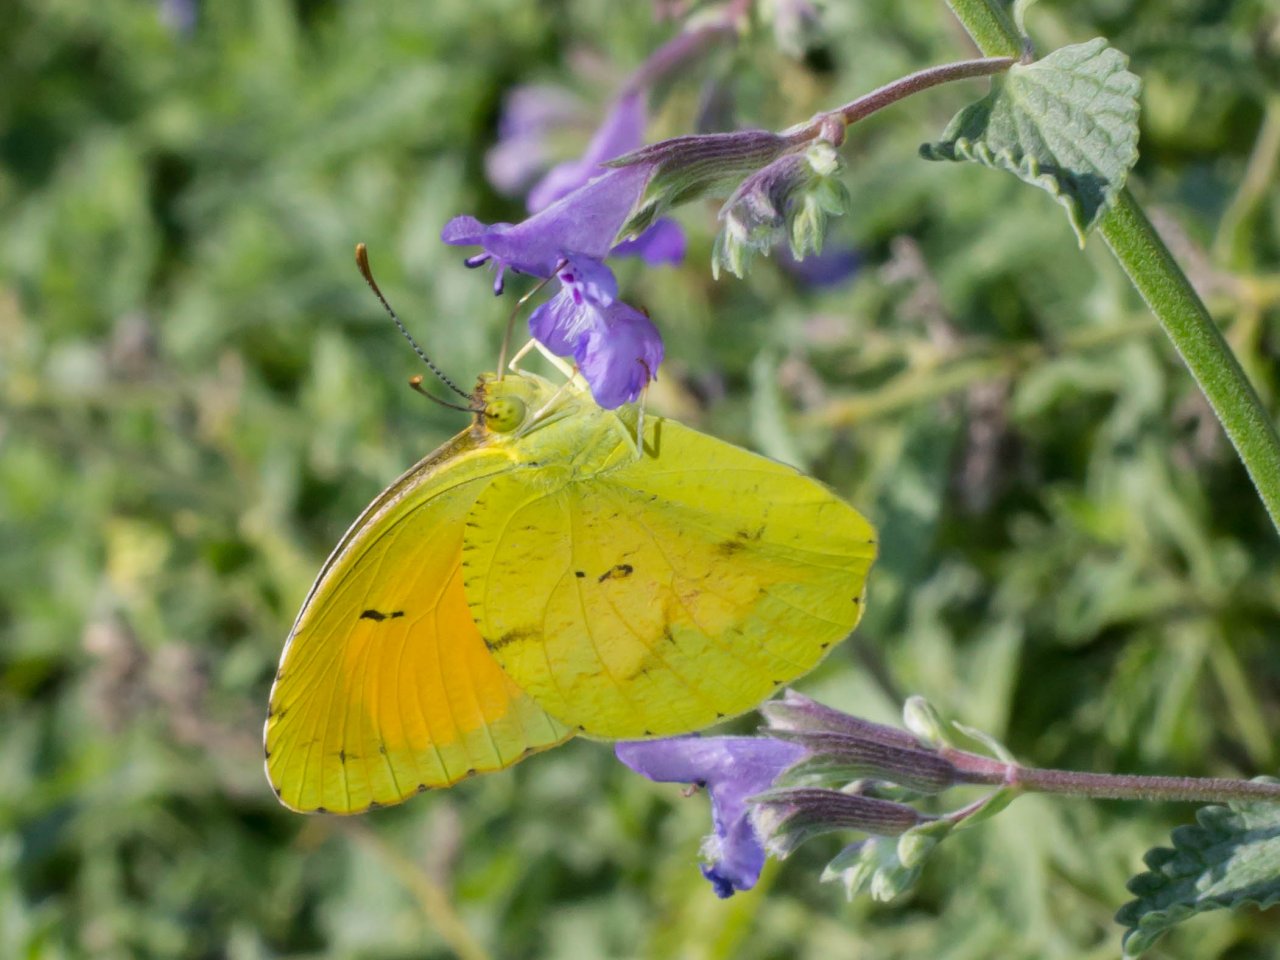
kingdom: Animalia
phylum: Arthropoda
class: Insecta
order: Lepidoptera
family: Pieridae
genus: Abaeis
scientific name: Abaeis nicippe
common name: Sleepy Orange
